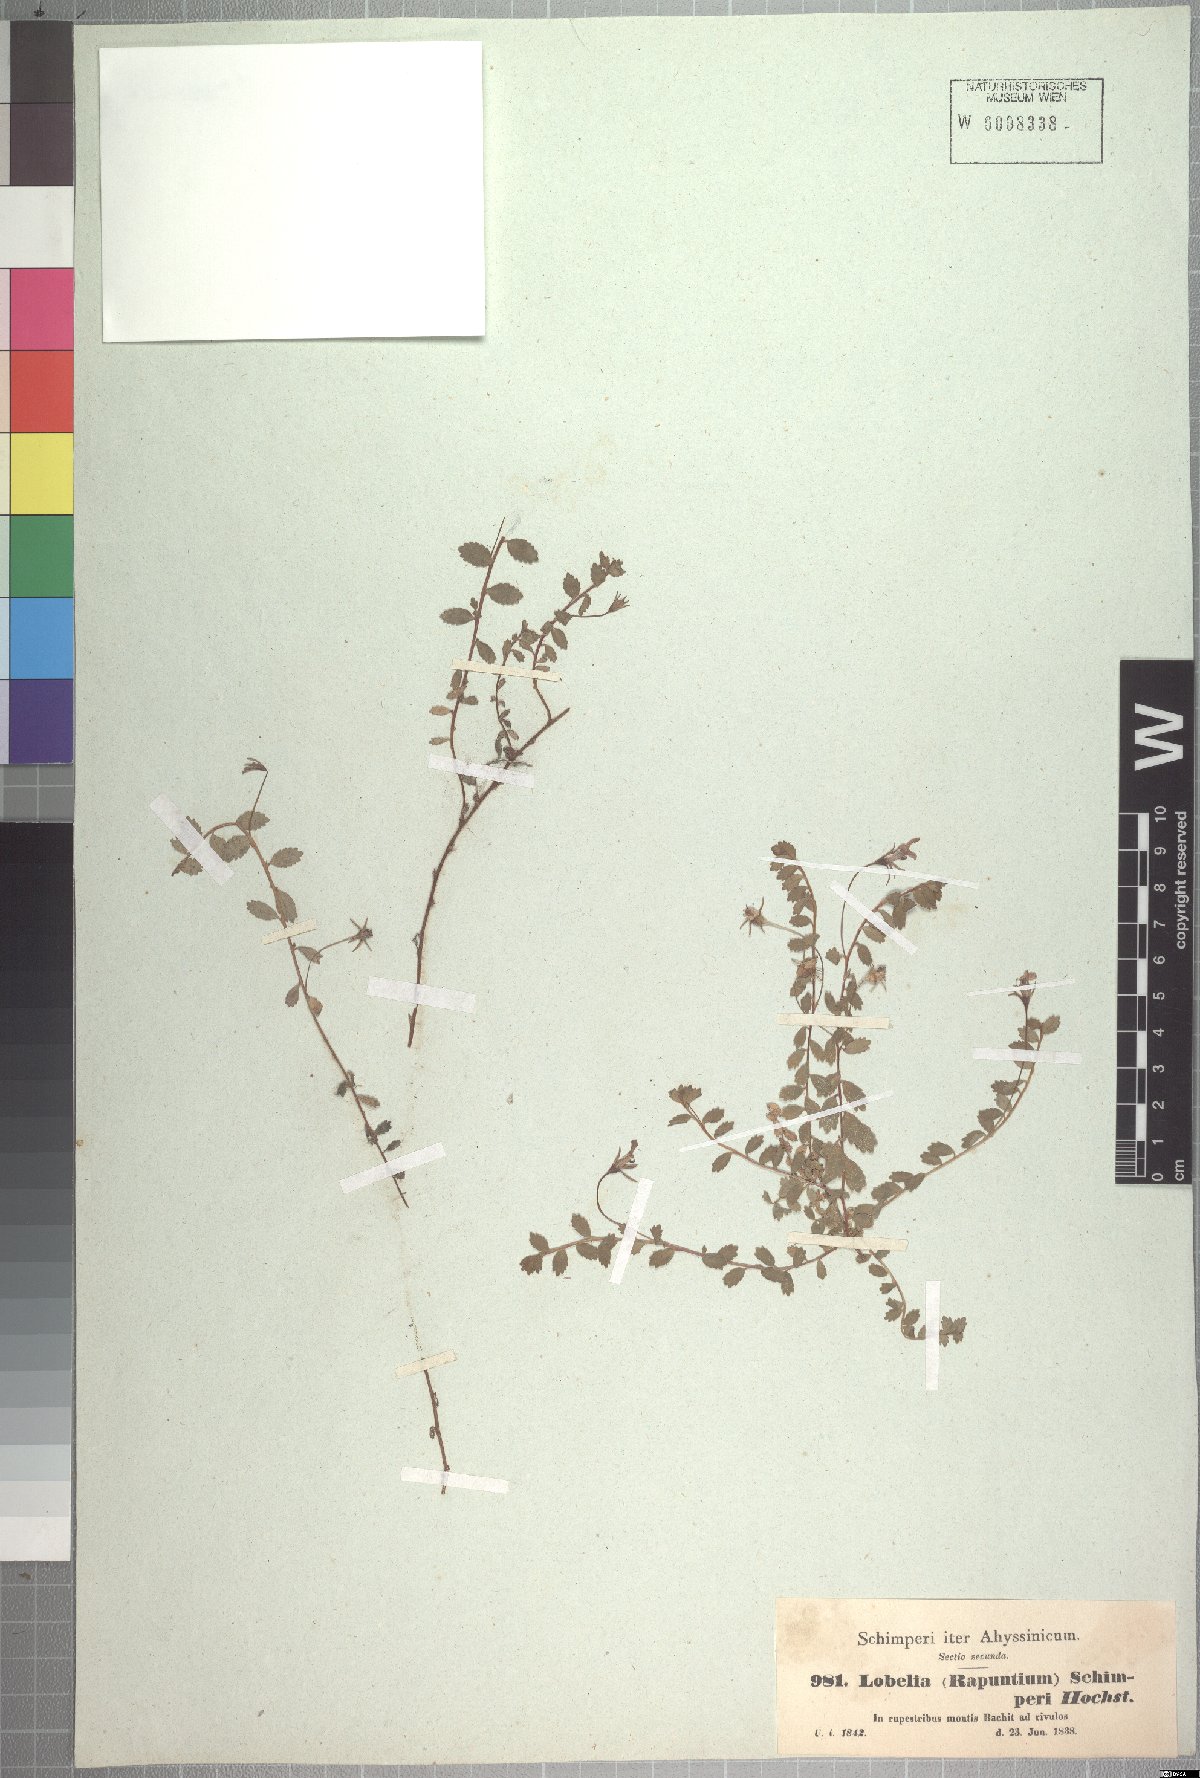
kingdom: Plantae
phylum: Tracheophyta
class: Magnoliopsida
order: Asterales
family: Campanulaceae
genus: Lobelia
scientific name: Lobelia schimperi
